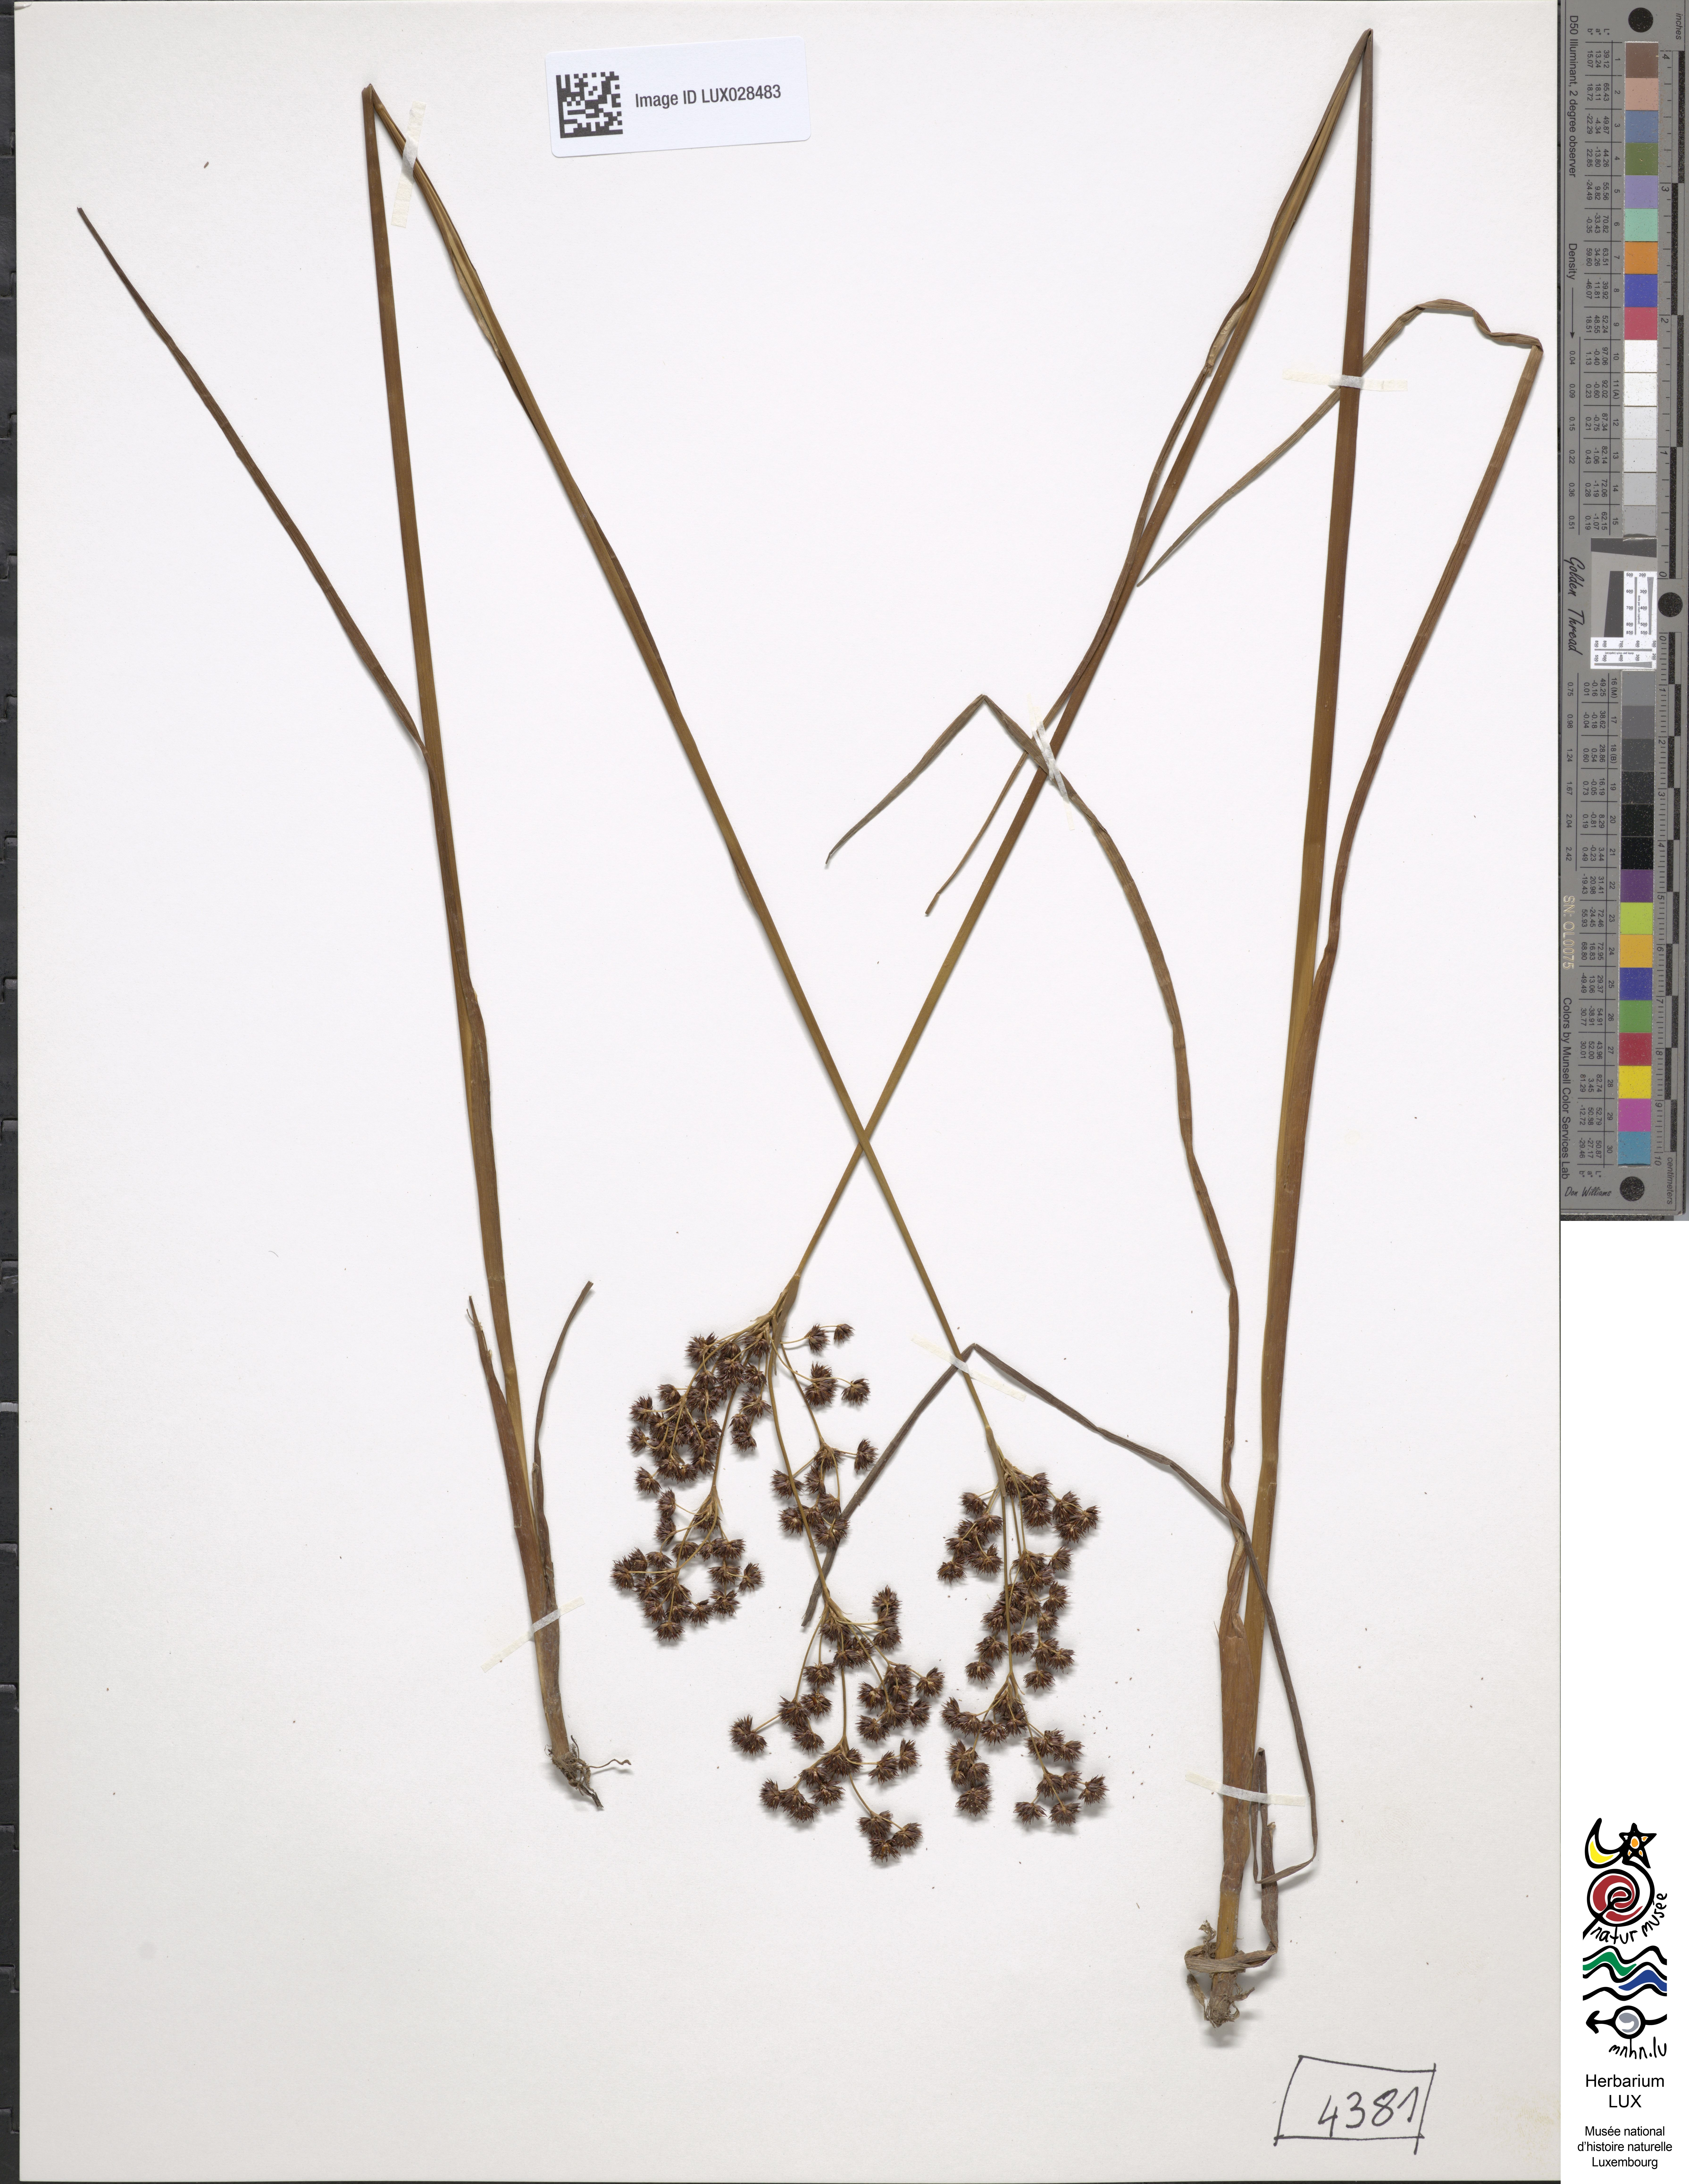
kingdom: Plantae
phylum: Tracheophyta
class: Liliopsida
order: Poales
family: Juncaceae
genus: Juncus
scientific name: Juncus atratus
